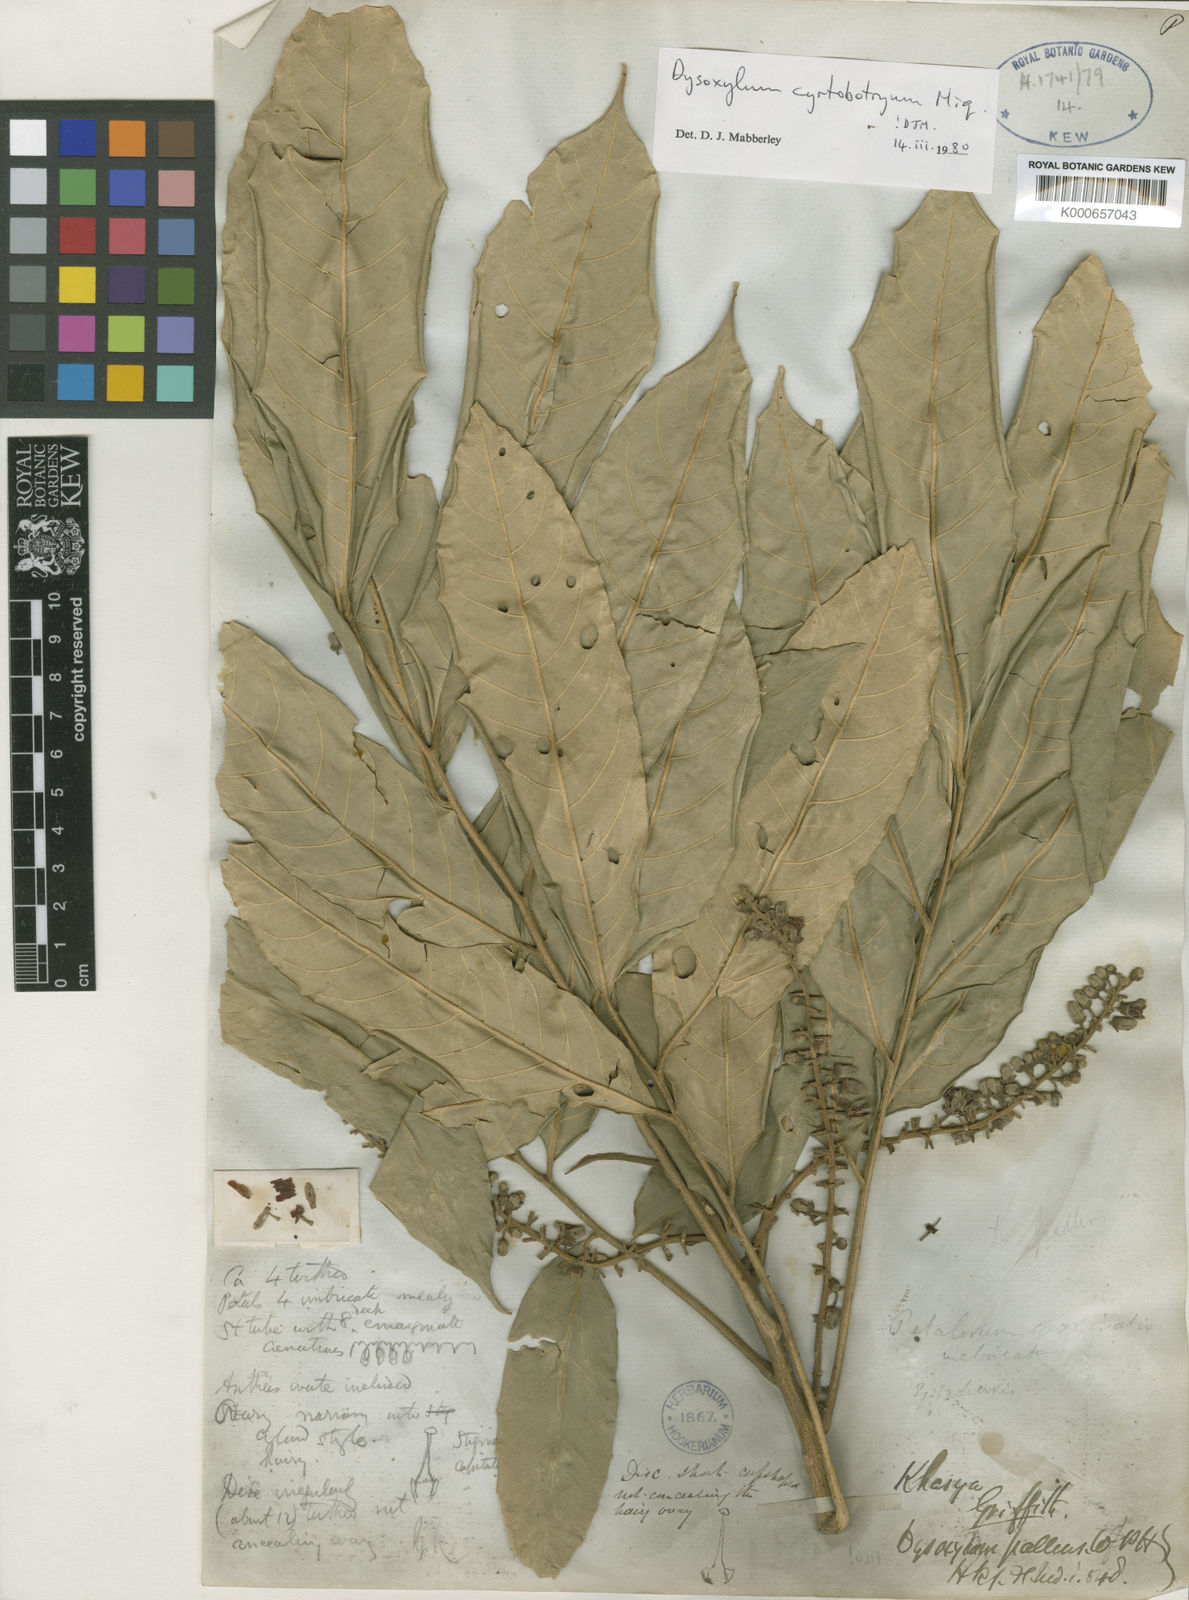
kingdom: Plantae
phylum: Tracheophyta
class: Magnoliopsida
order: Sapindales
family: Meliaceae
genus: Dysoxylum
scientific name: Dysoxylum cyrtobotryum
